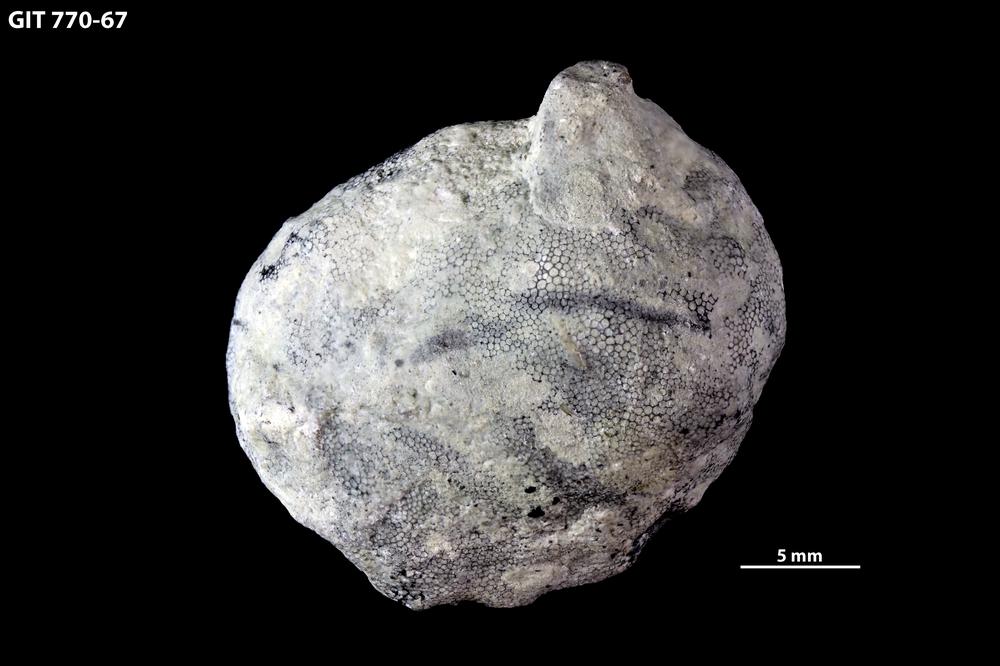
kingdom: Animalia
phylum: Bryozoa
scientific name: Bryozoa
